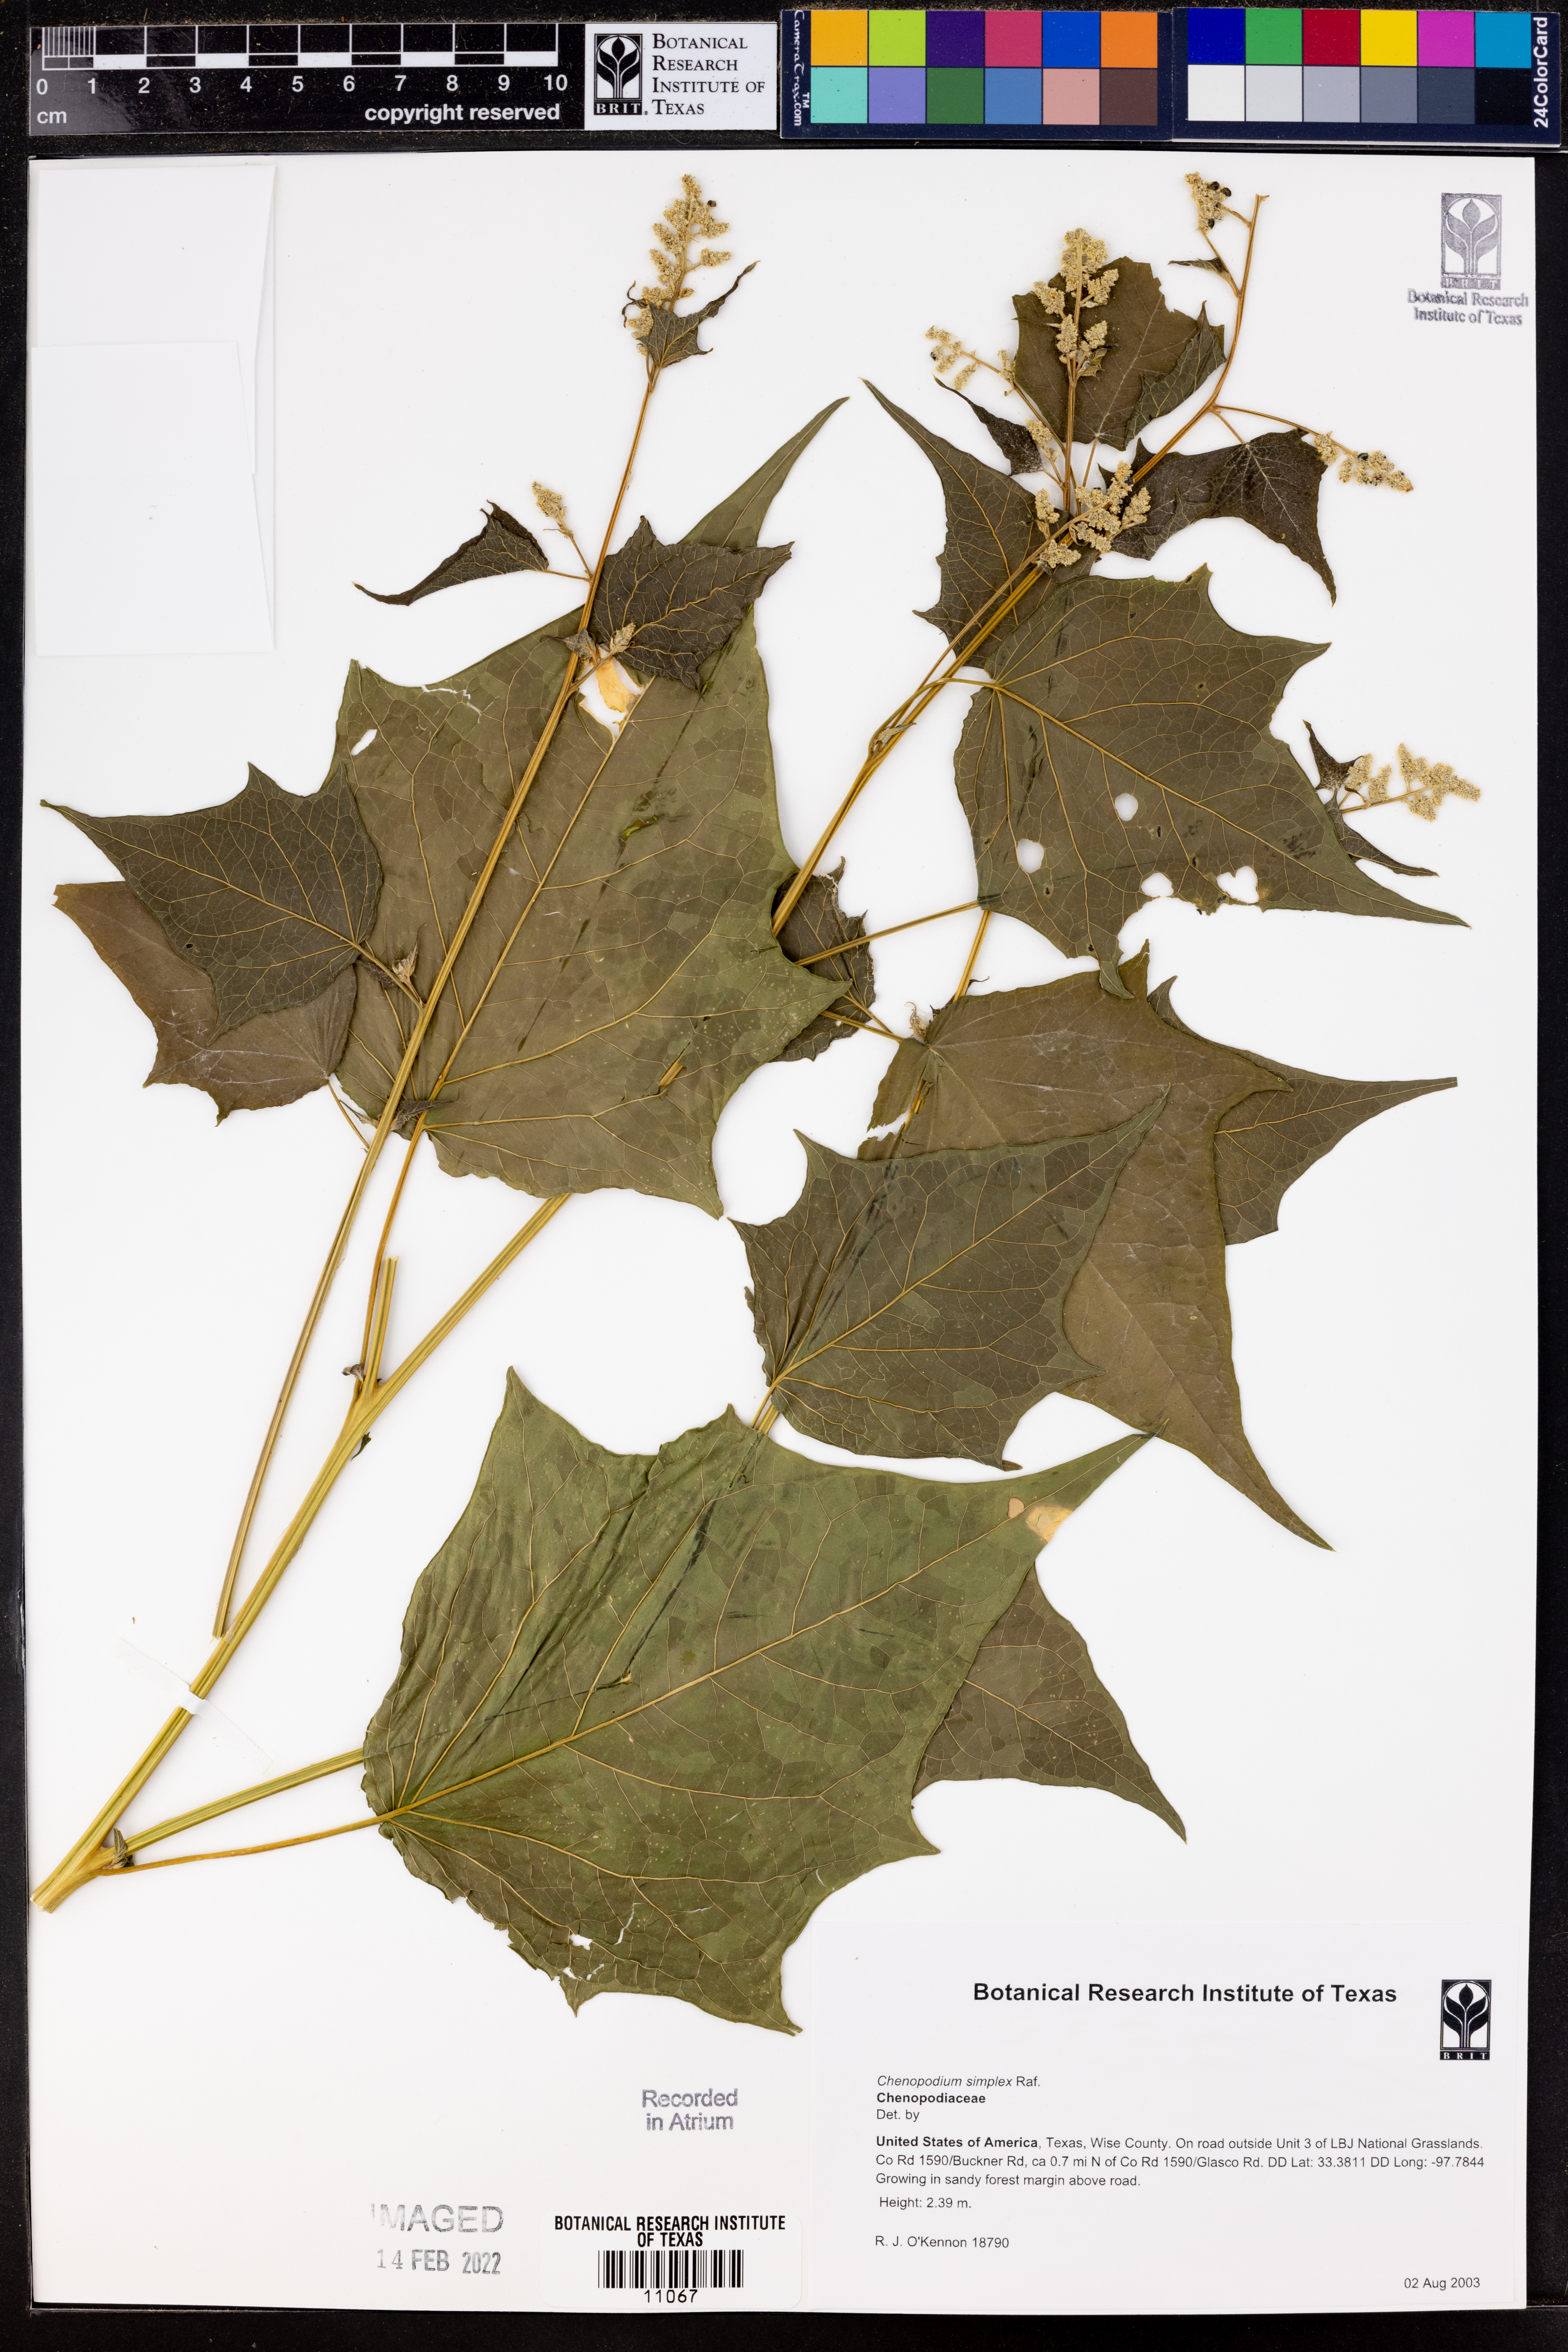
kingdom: Plantae
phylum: Tracheophyta
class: Magnoliopsida
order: Caryophyllales
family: Amaranthaceae
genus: Chenopodiastrum
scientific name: Chenopodiastrum simplex
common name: Large-seed goosefoot
